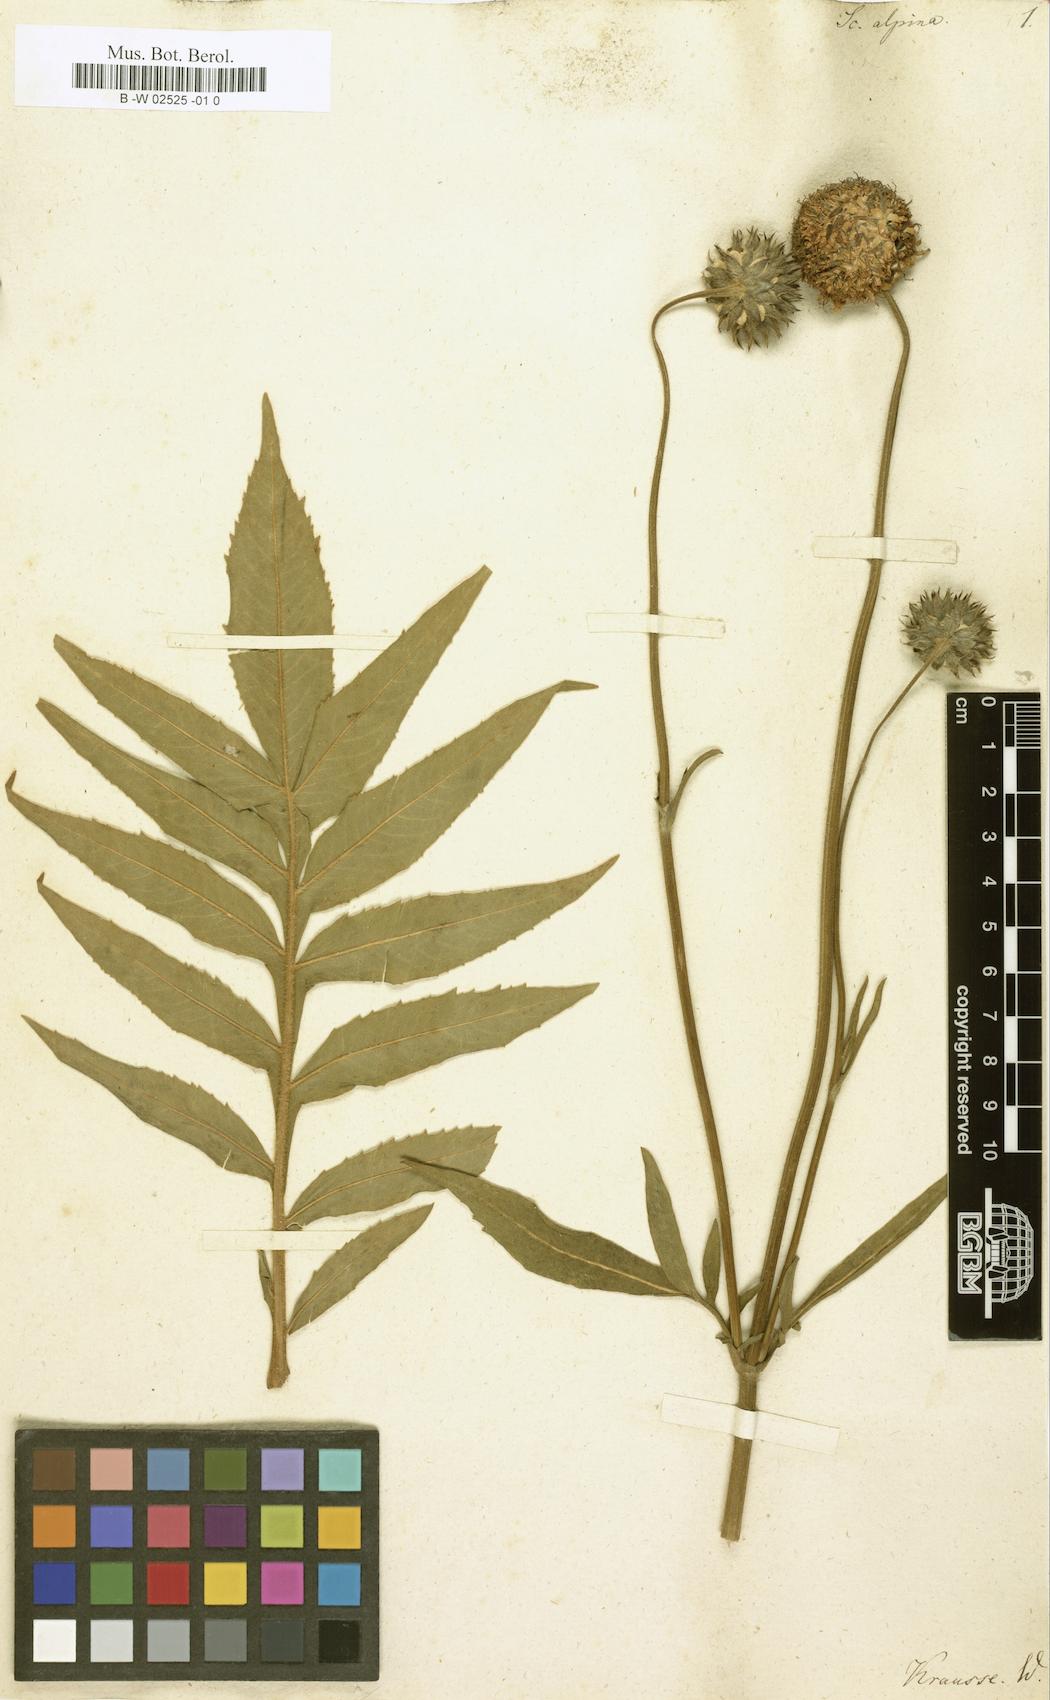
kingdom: Plantae
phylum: Tracheophyta
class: Magnoliopsida
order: Dipsacales
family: Caprifoliaceae
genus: Cephalaria
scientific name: Cephalaria alpina
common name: Alpine-scabious
